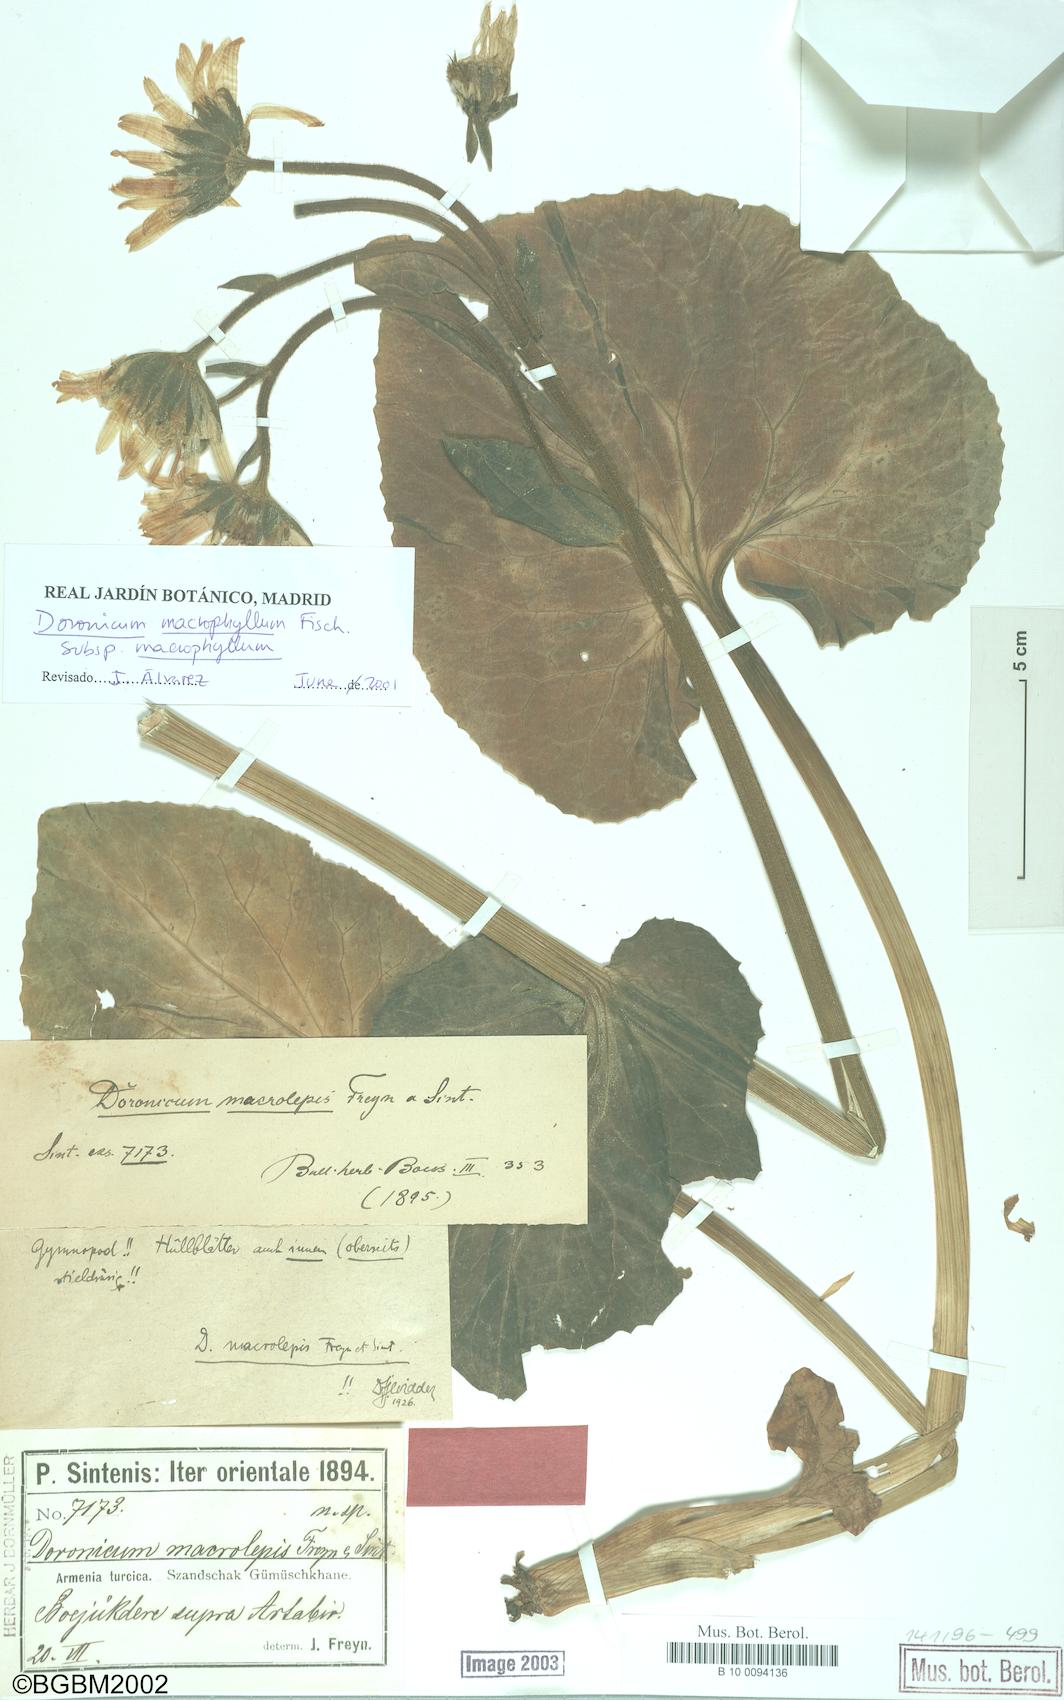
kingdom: Plantae
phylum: Tracheophyta
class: Magnoliopsida
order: Asterales
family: Asteraceae
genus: Doronicum
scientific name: Doronicum macrophyllum
